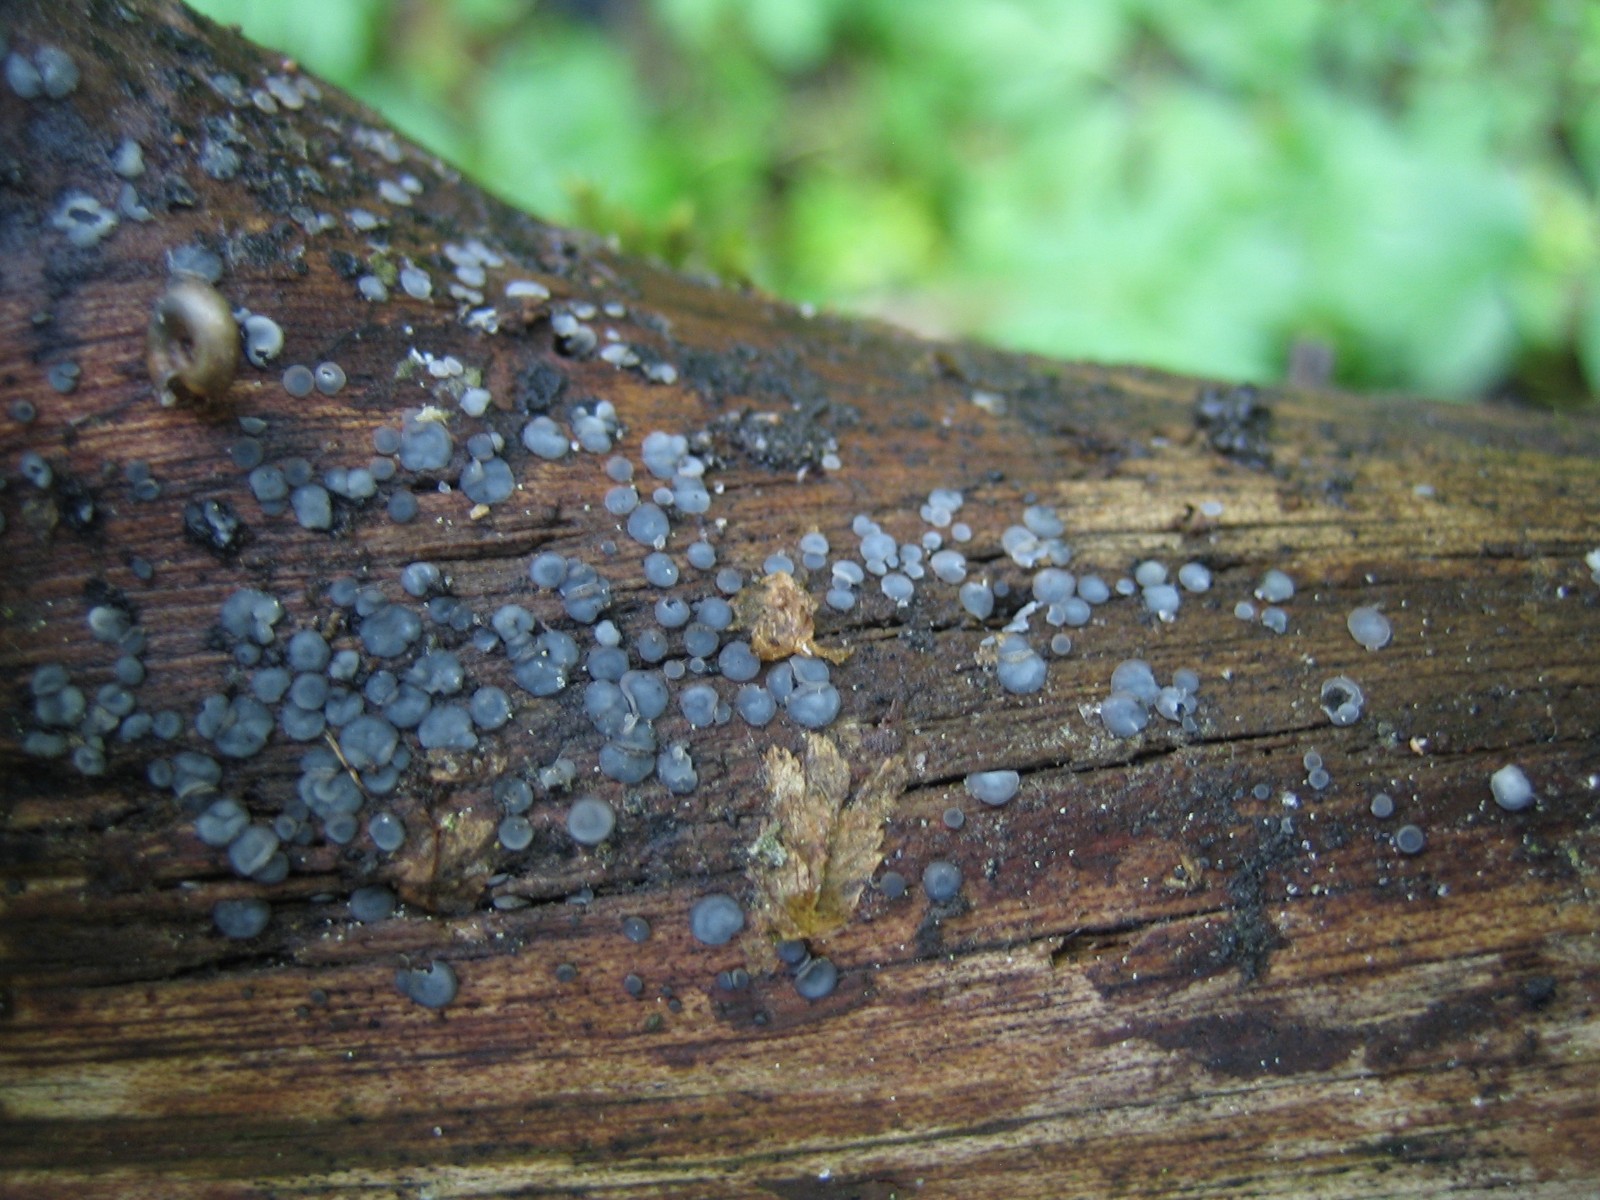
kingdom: Fungi
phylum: Ascomycota
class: Leotiomycetes
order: Helotiales
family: Dermateaceae
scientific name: Dermateaceae
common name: gråskivefamilien
